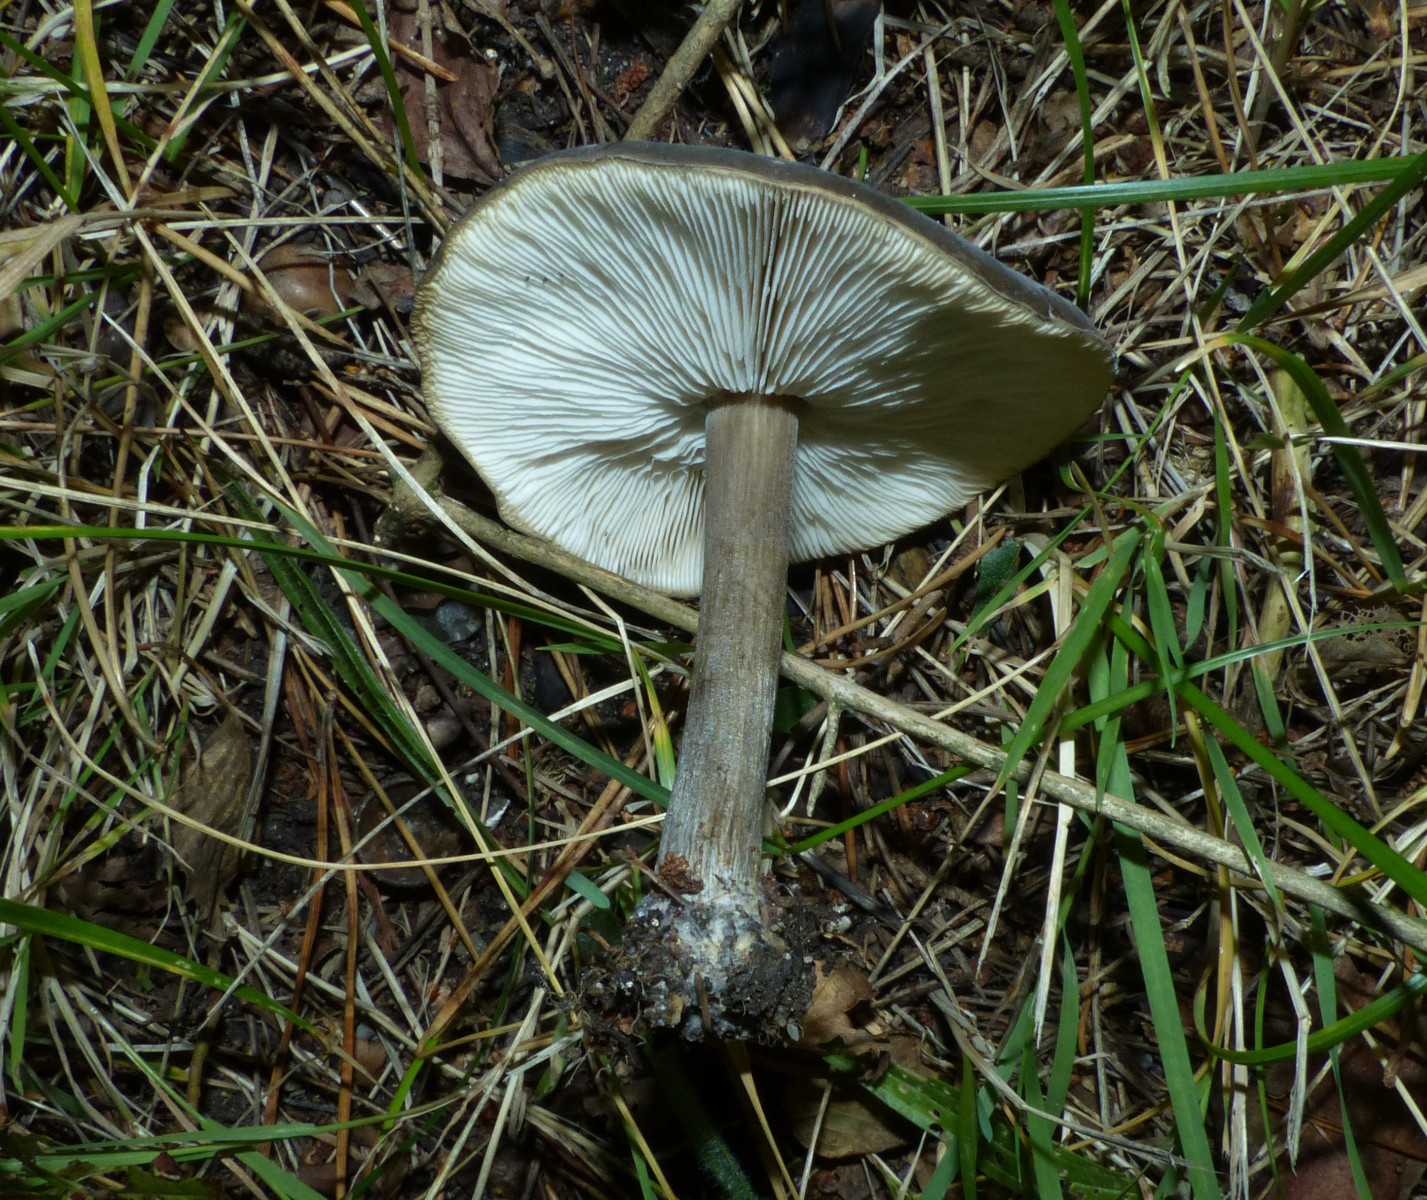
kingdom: Fungi
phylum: Basidiomycota
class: Agaricomycetes
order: Agaricales
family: Tricholomataceae
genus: Melanoleuca
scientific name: Melanoleuca
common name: munkehat
